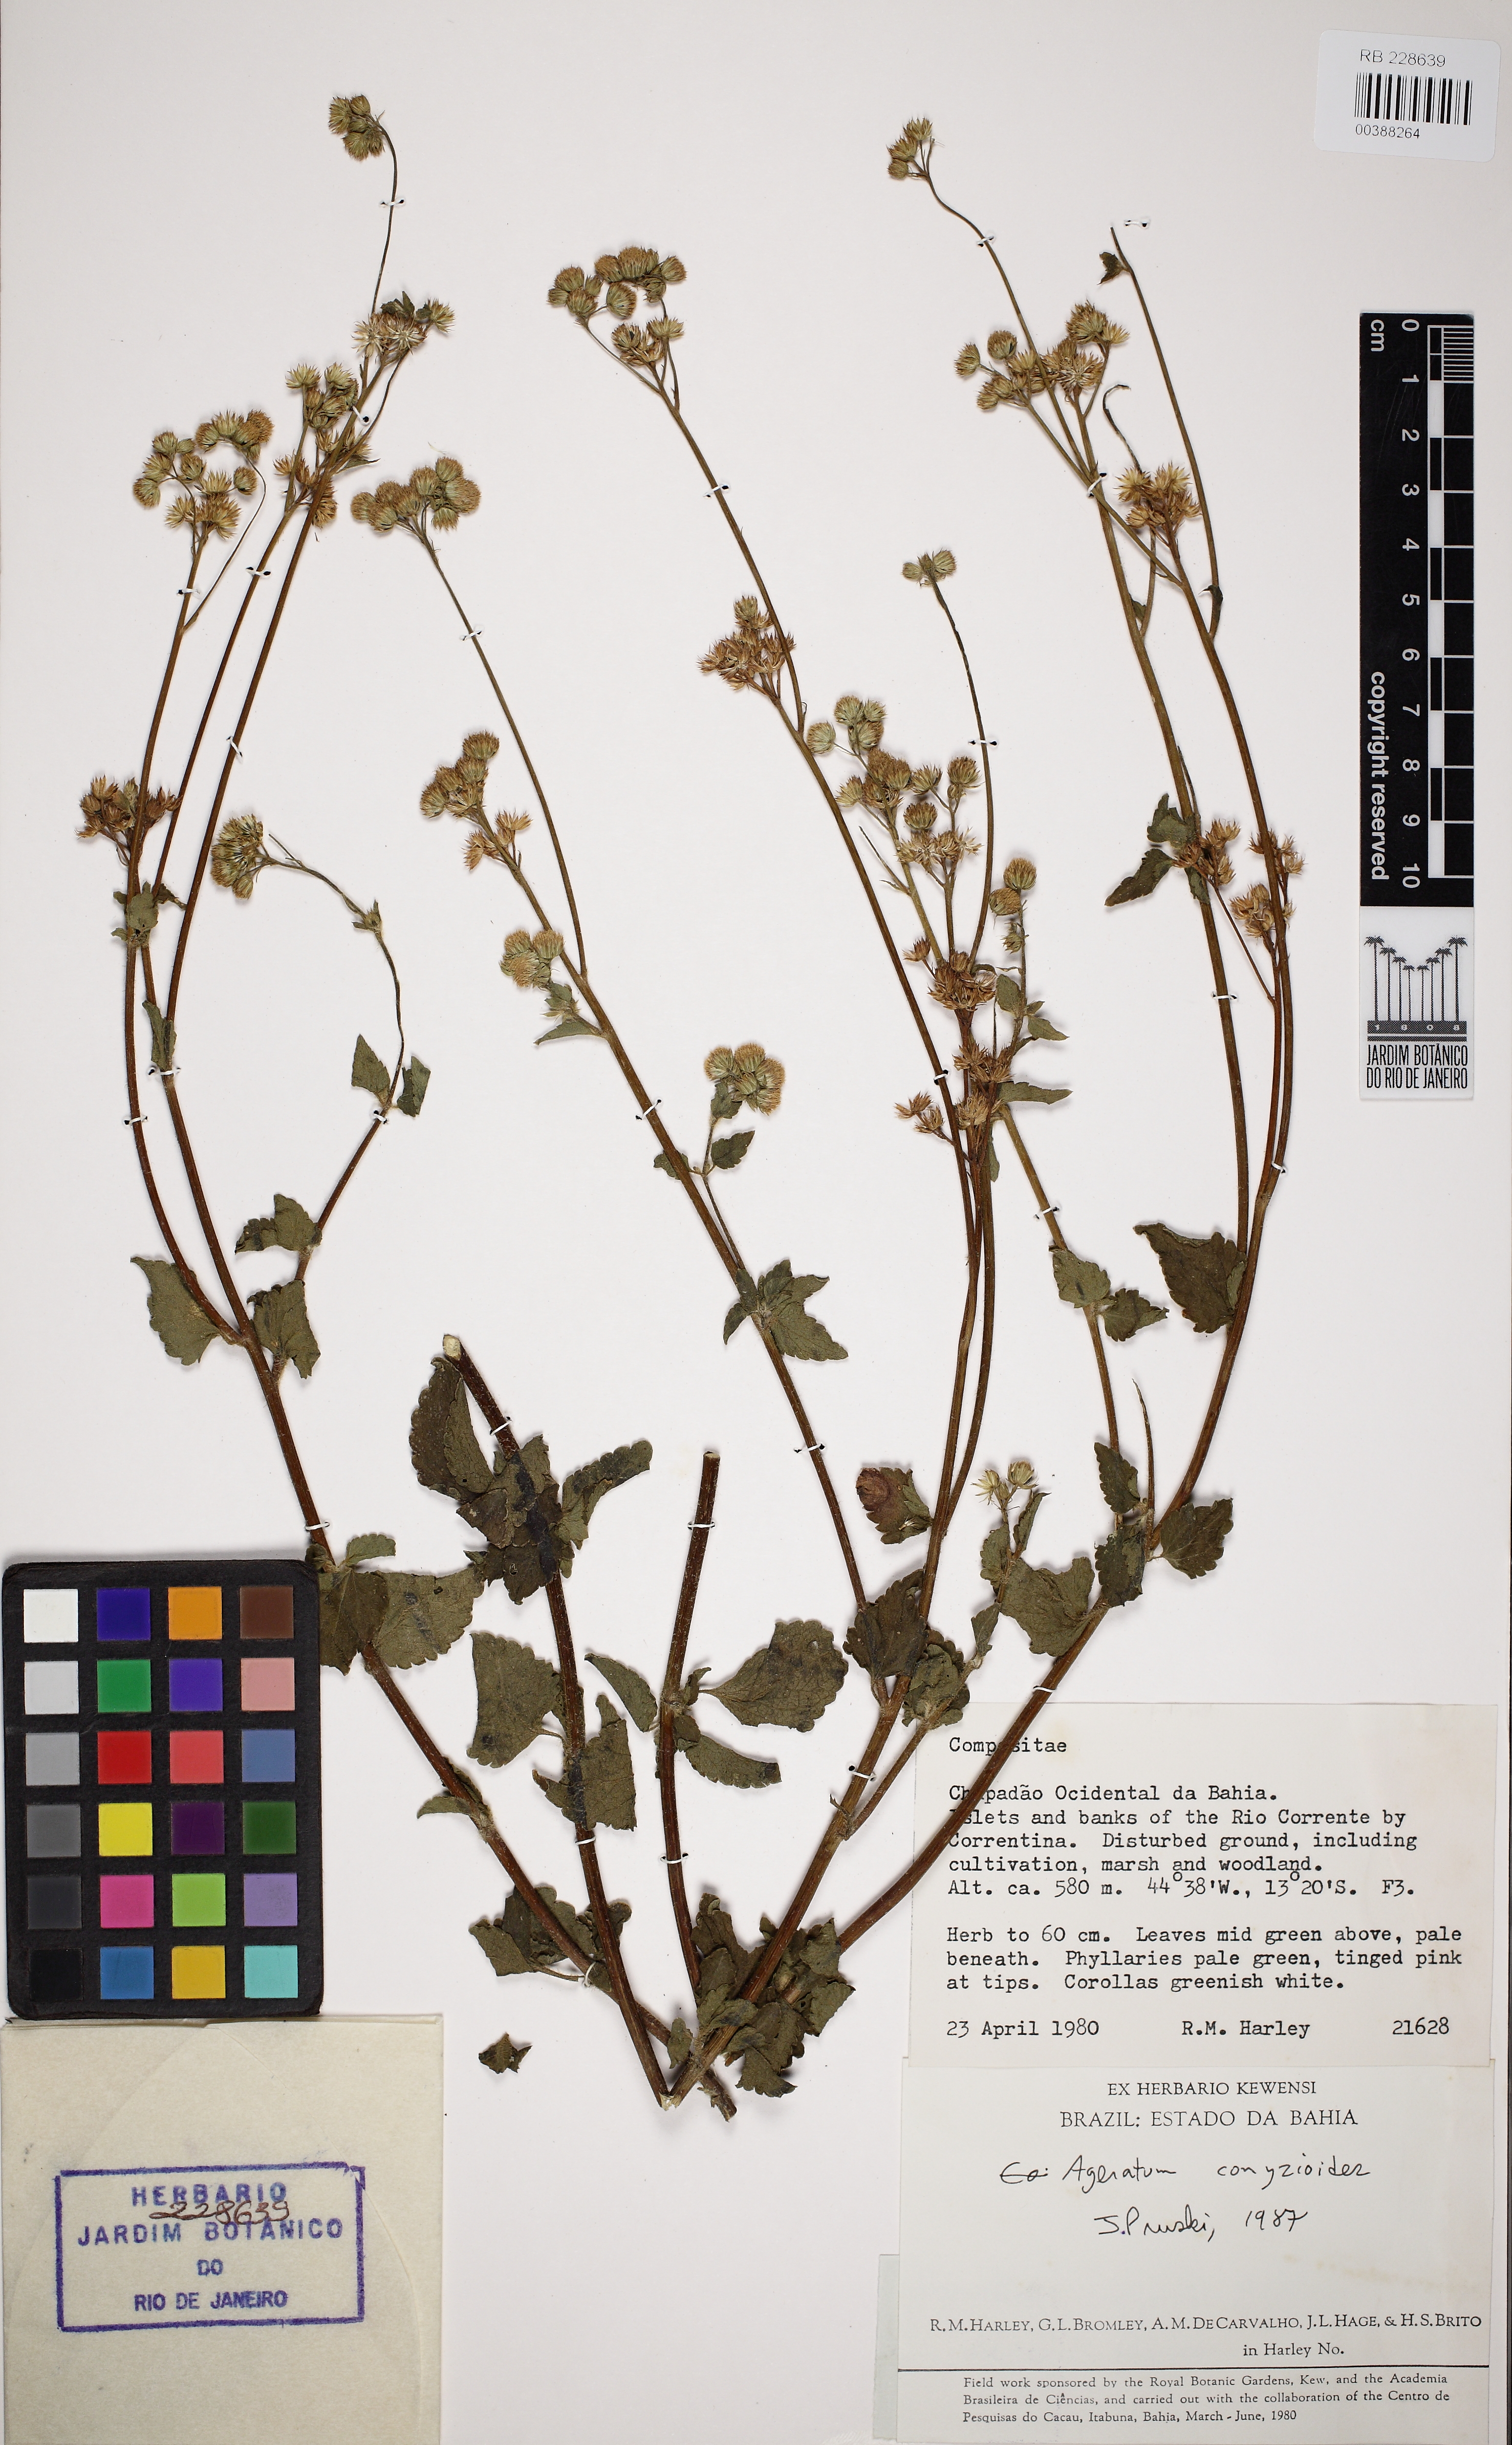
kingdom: Plantae
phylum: Tracheophyta
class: Magnoliopsida
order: Asterales
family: Asteraceae
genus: Ageratum
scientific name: Ageratum conyzoides
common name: Tropical whiteweed
